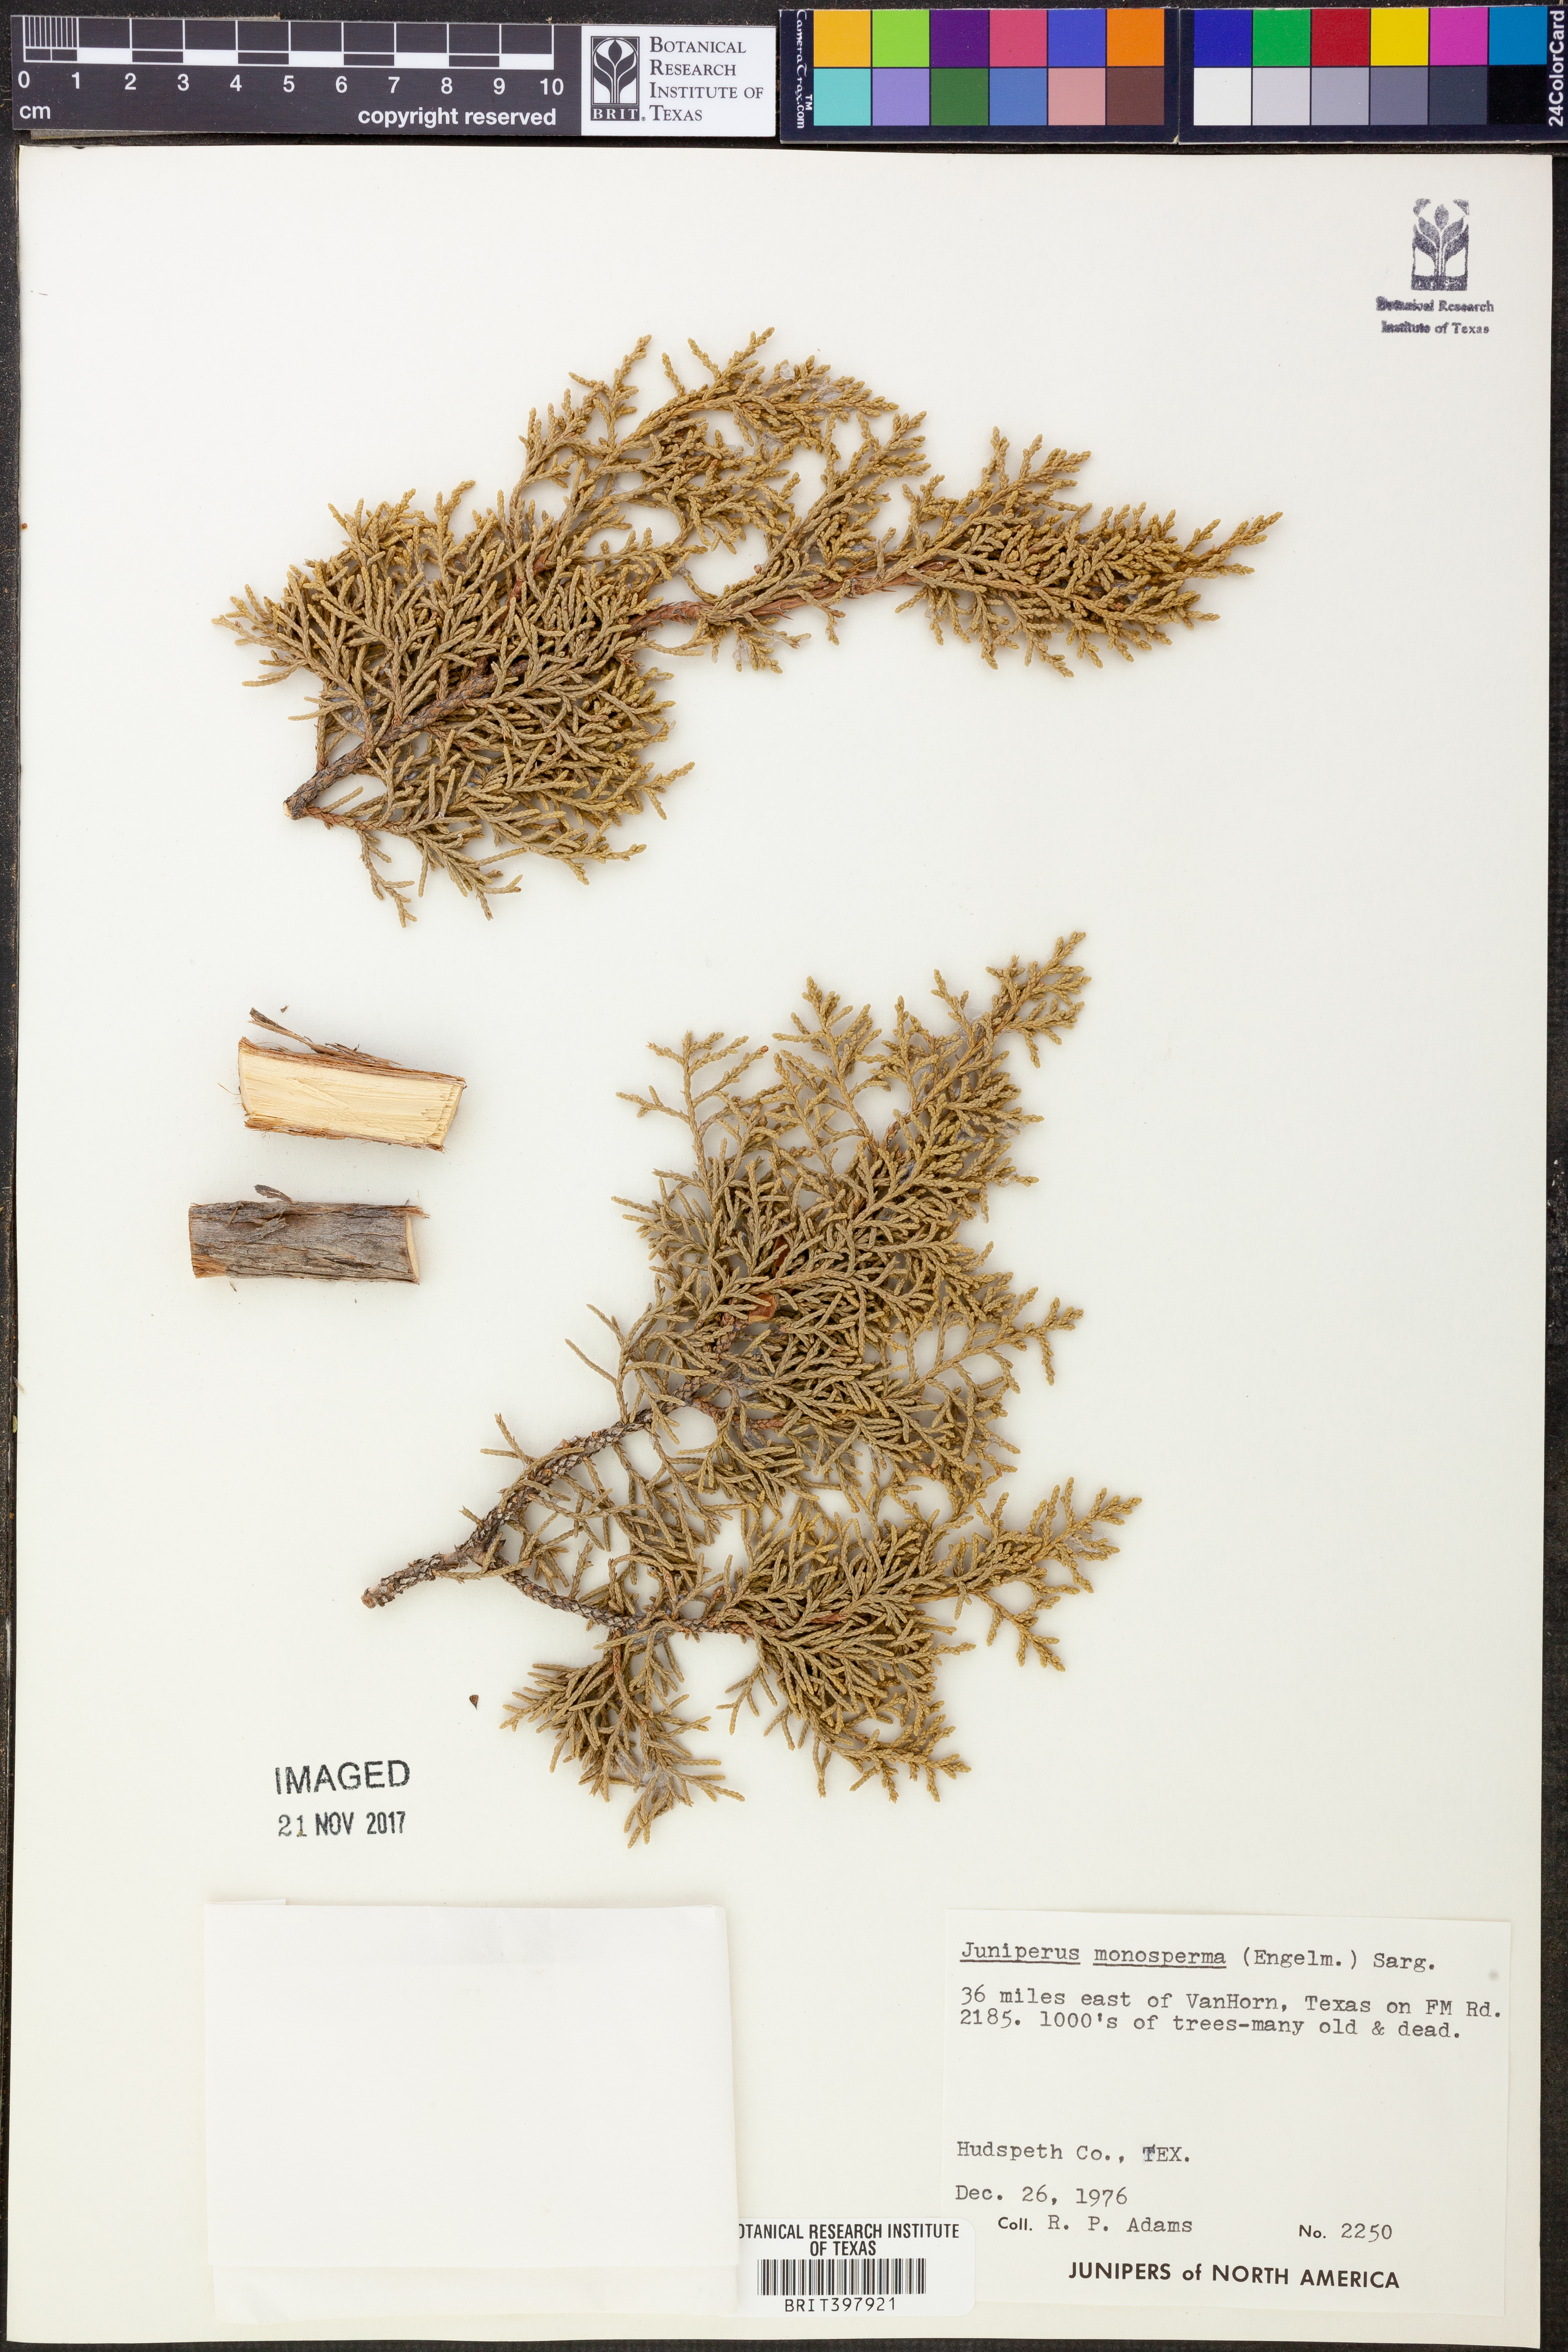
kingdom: Plantae
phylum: Tracheophyta
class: Pinopsida
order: Pinales
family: Cupressaceae
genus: Juniperus
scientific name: Juniperus monosperma
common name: One-seed juniper
